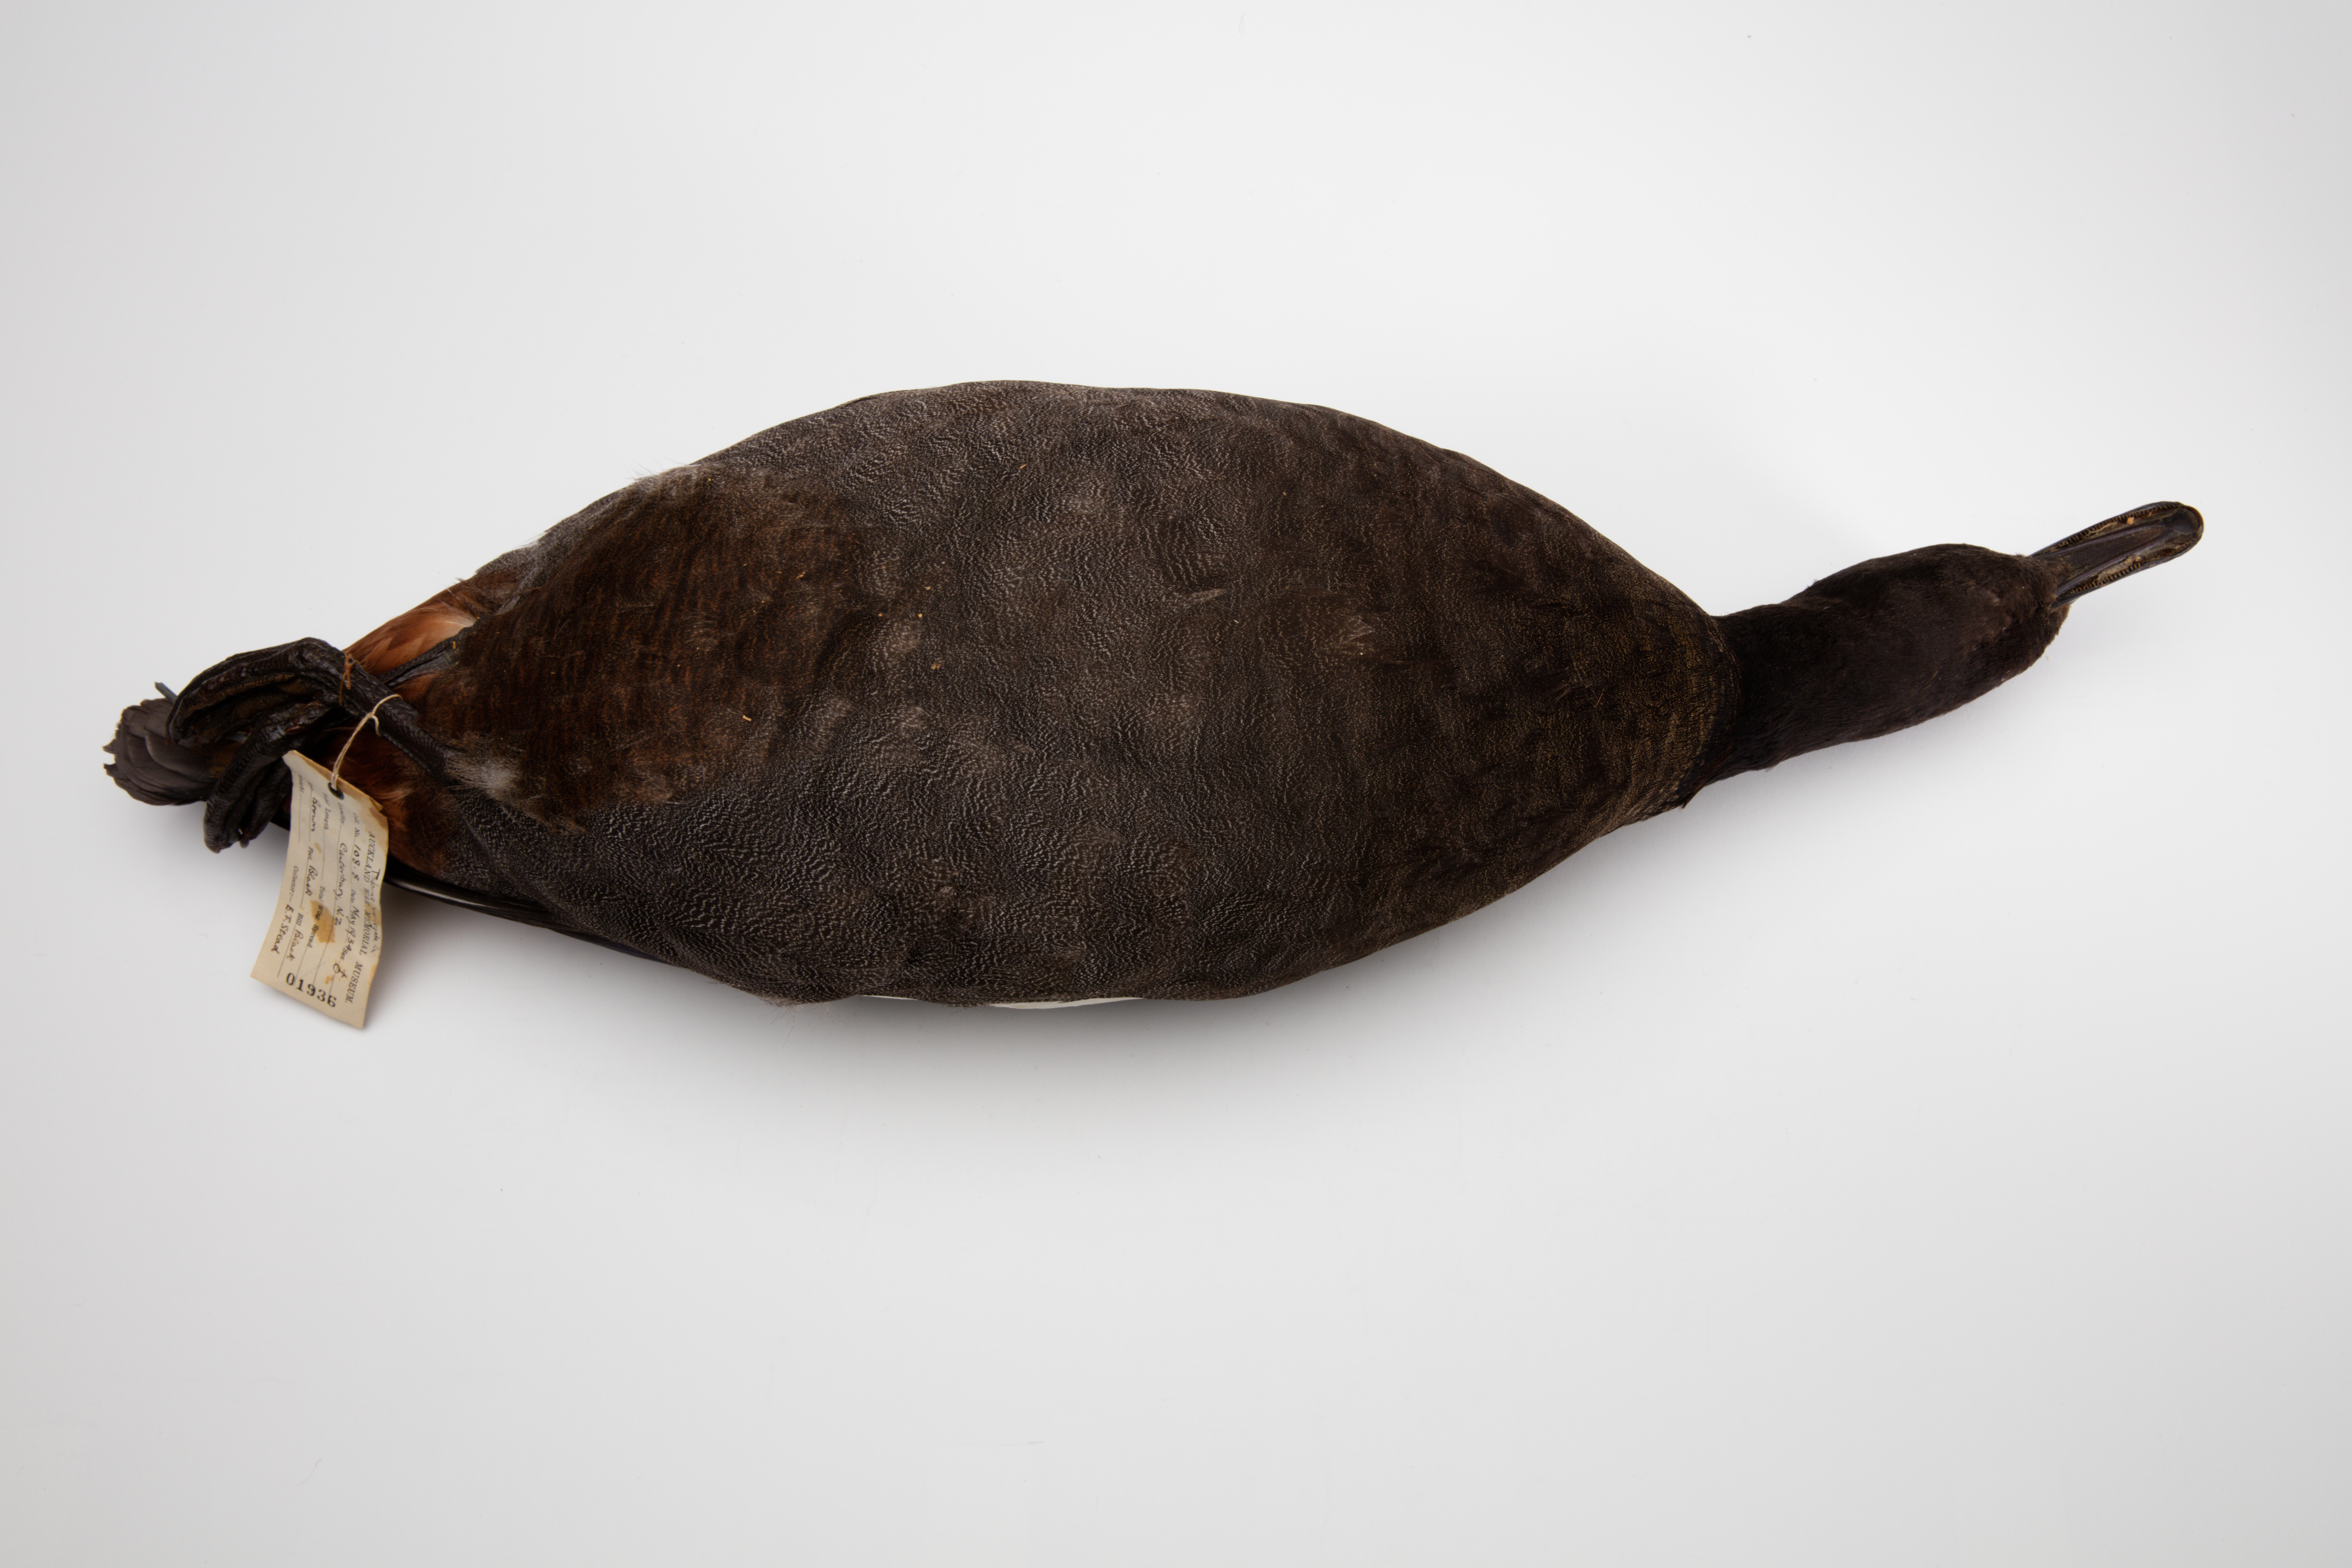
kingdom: Animalia
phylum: Chordata
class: Aves
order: Anseriformes
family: Anatidae
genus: Tadorna
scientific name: Tadorna variegata
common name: Paradise shelduck
